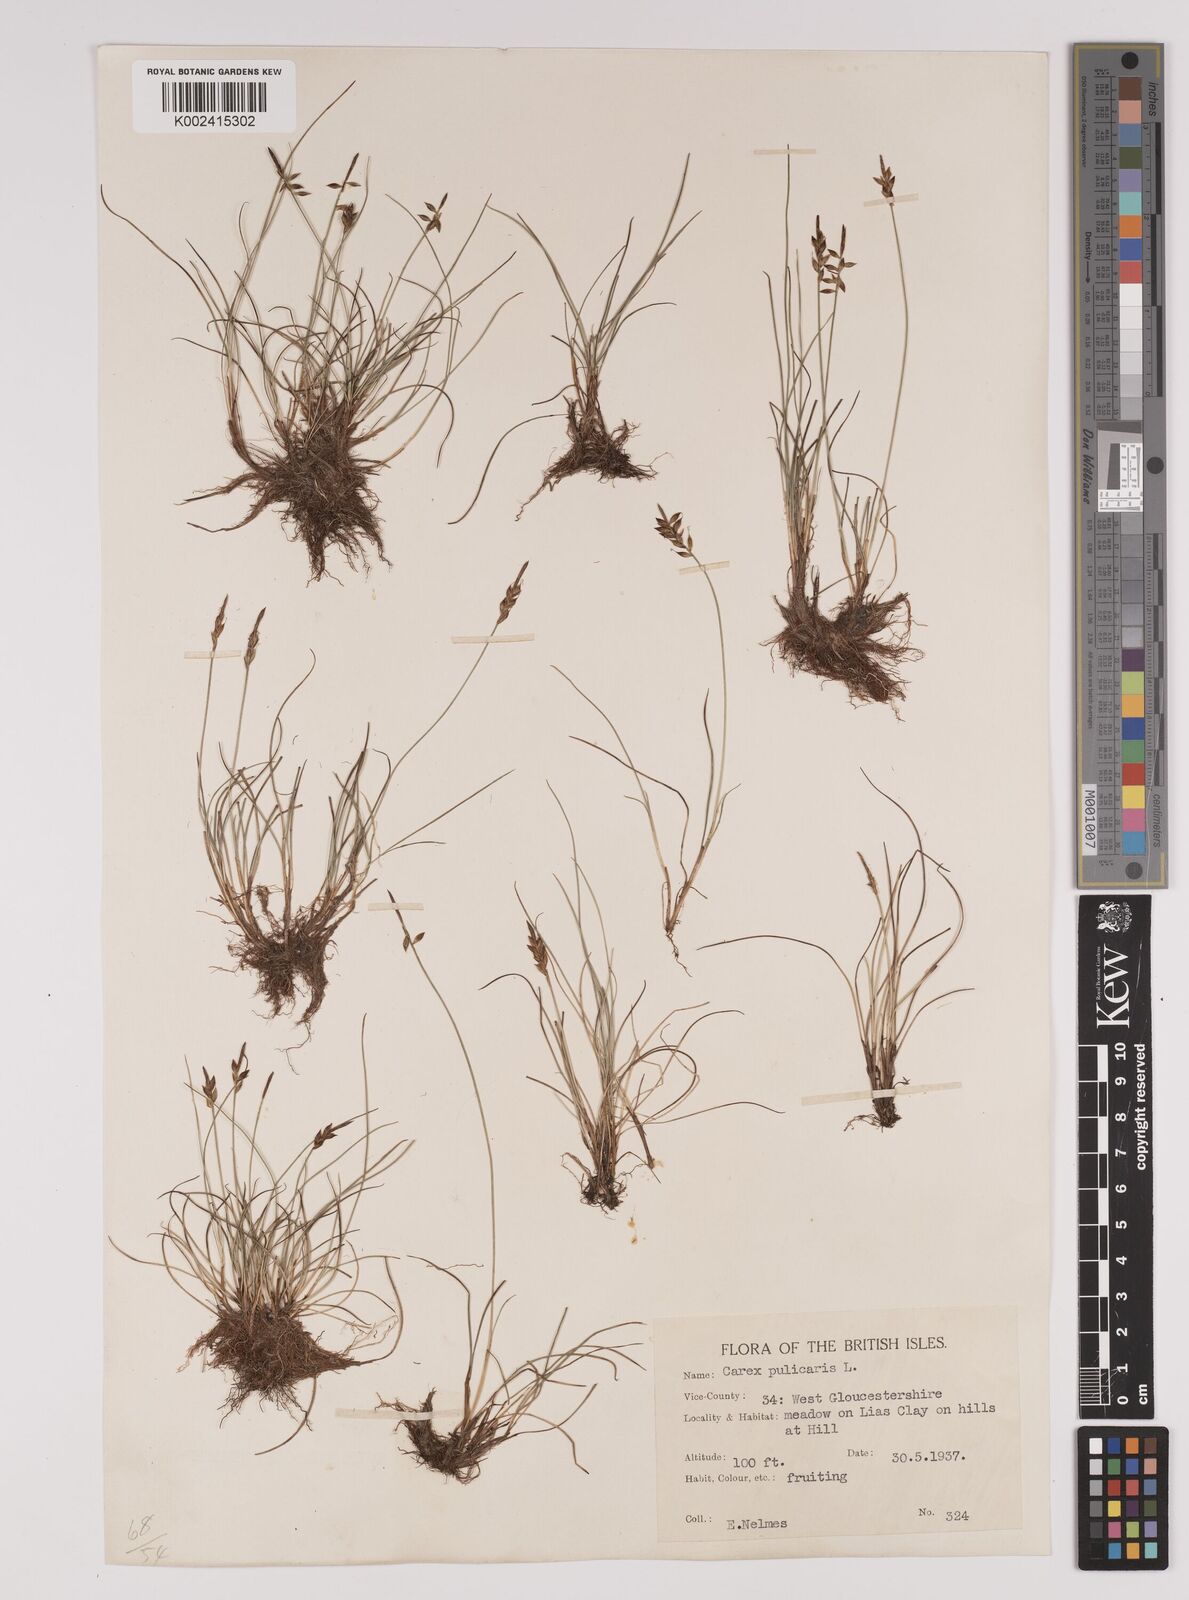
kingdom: Plantae
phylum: Tracheophyta
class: Liliopsida
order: Poales
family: Cyperaceae
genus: Carex
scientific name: Carex pulicaris
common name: Flea sedge
